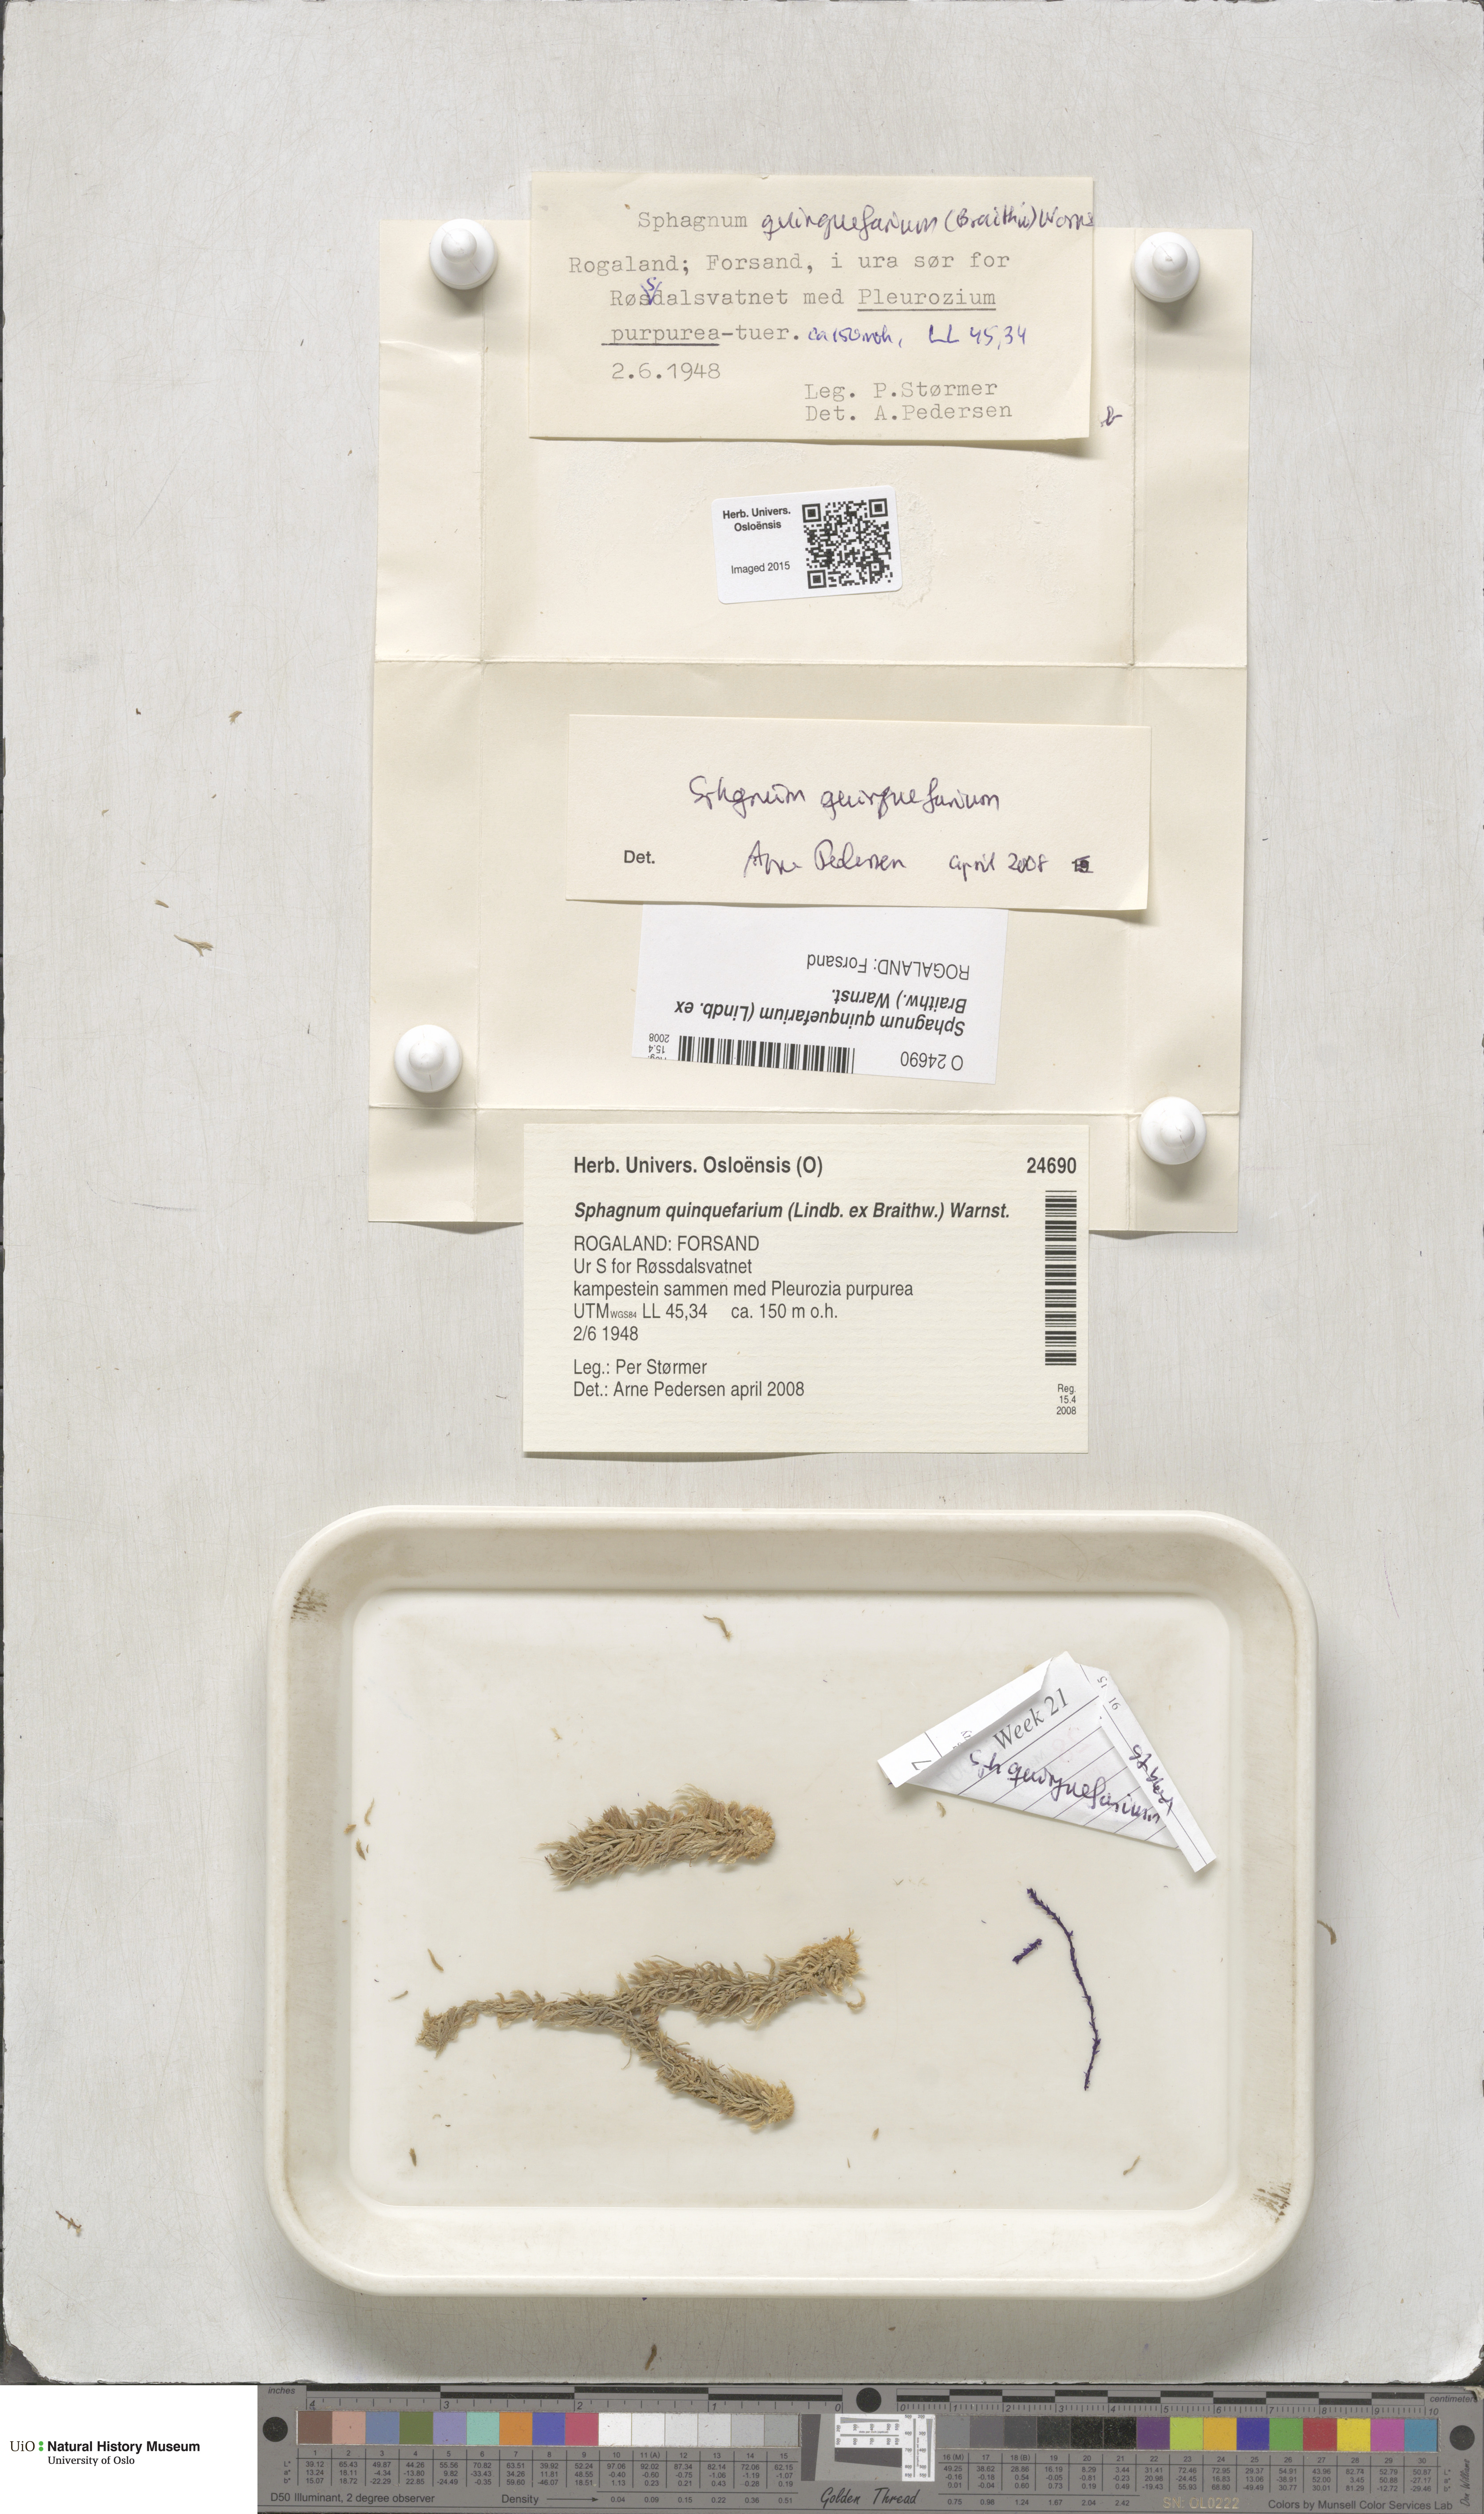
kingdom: Plantae
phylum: Bryophyta
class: Sphagnopsida
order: Sphagnales
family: Sphagnaceae
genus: Sphagnum
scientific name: Sphagnum quinquefarium
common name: Five-ranked peat moss
